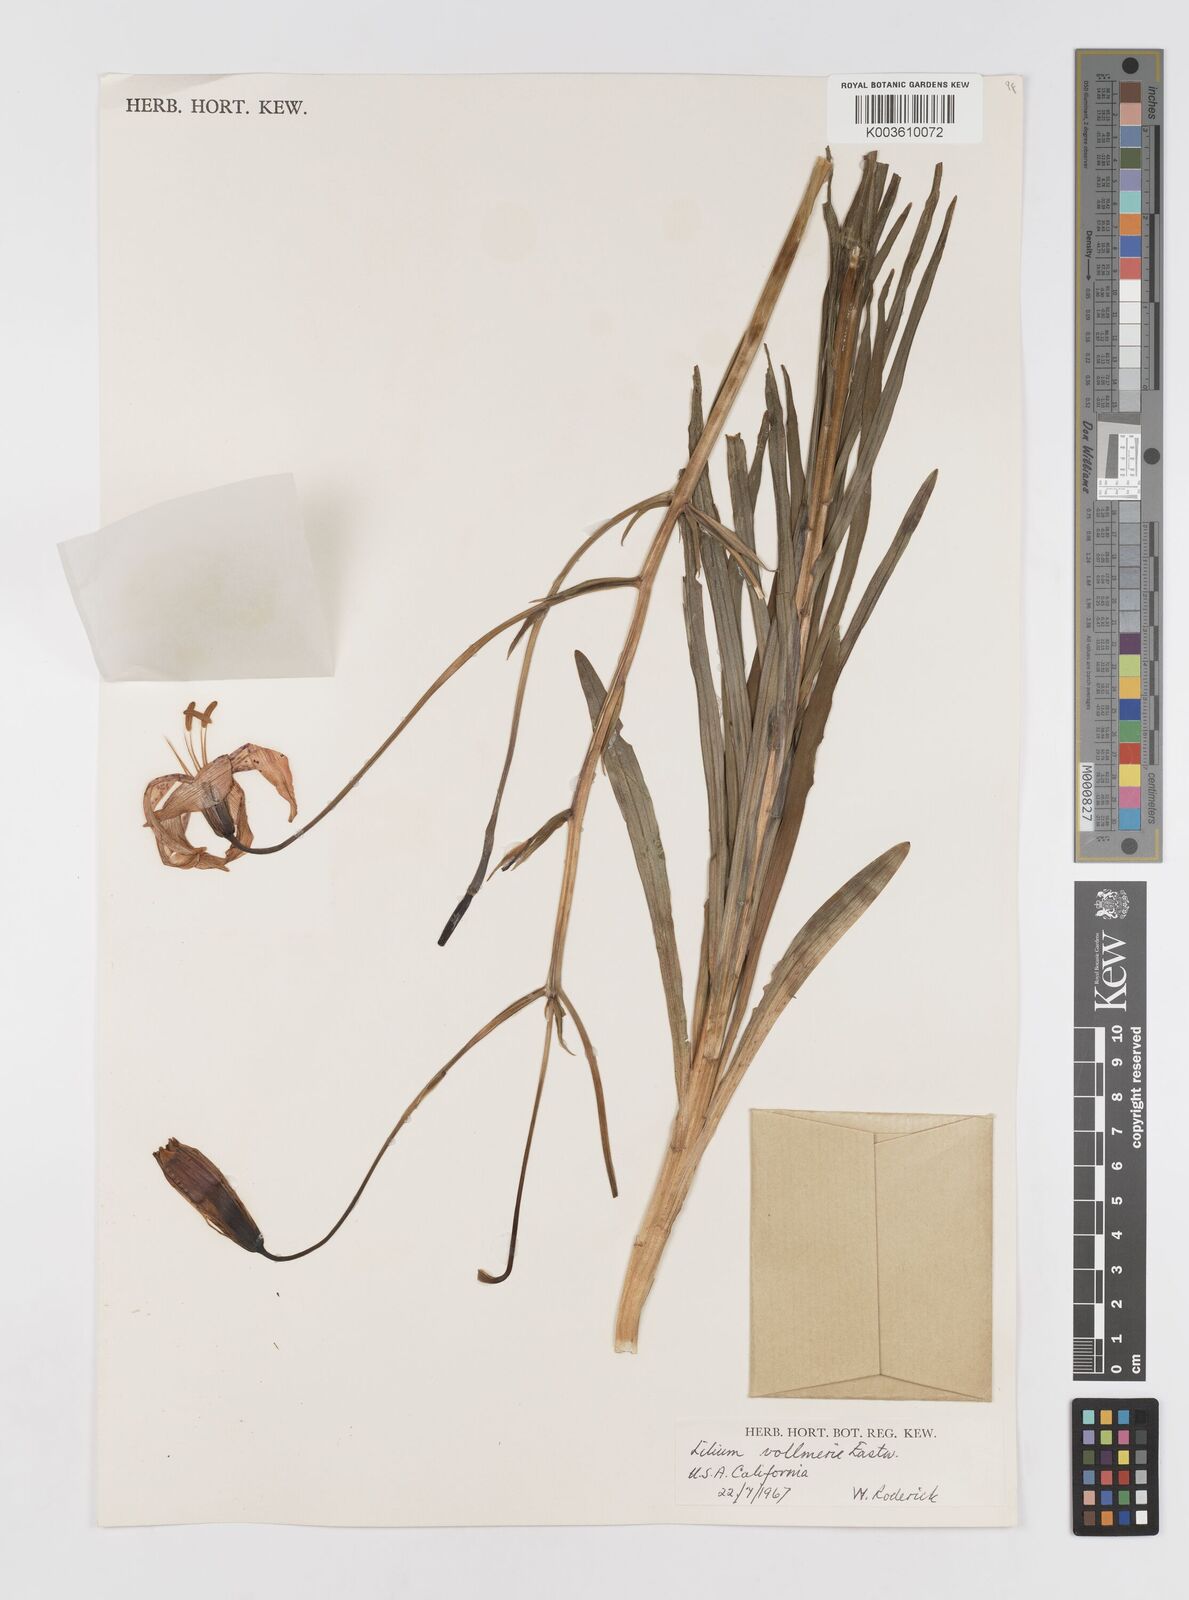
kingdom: Plantae
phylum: Tracheophyta
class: Liliopsida
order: Liliales
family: Liliaceae
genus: Lilium
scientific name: Lilium pardalinum
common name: Panther lily
